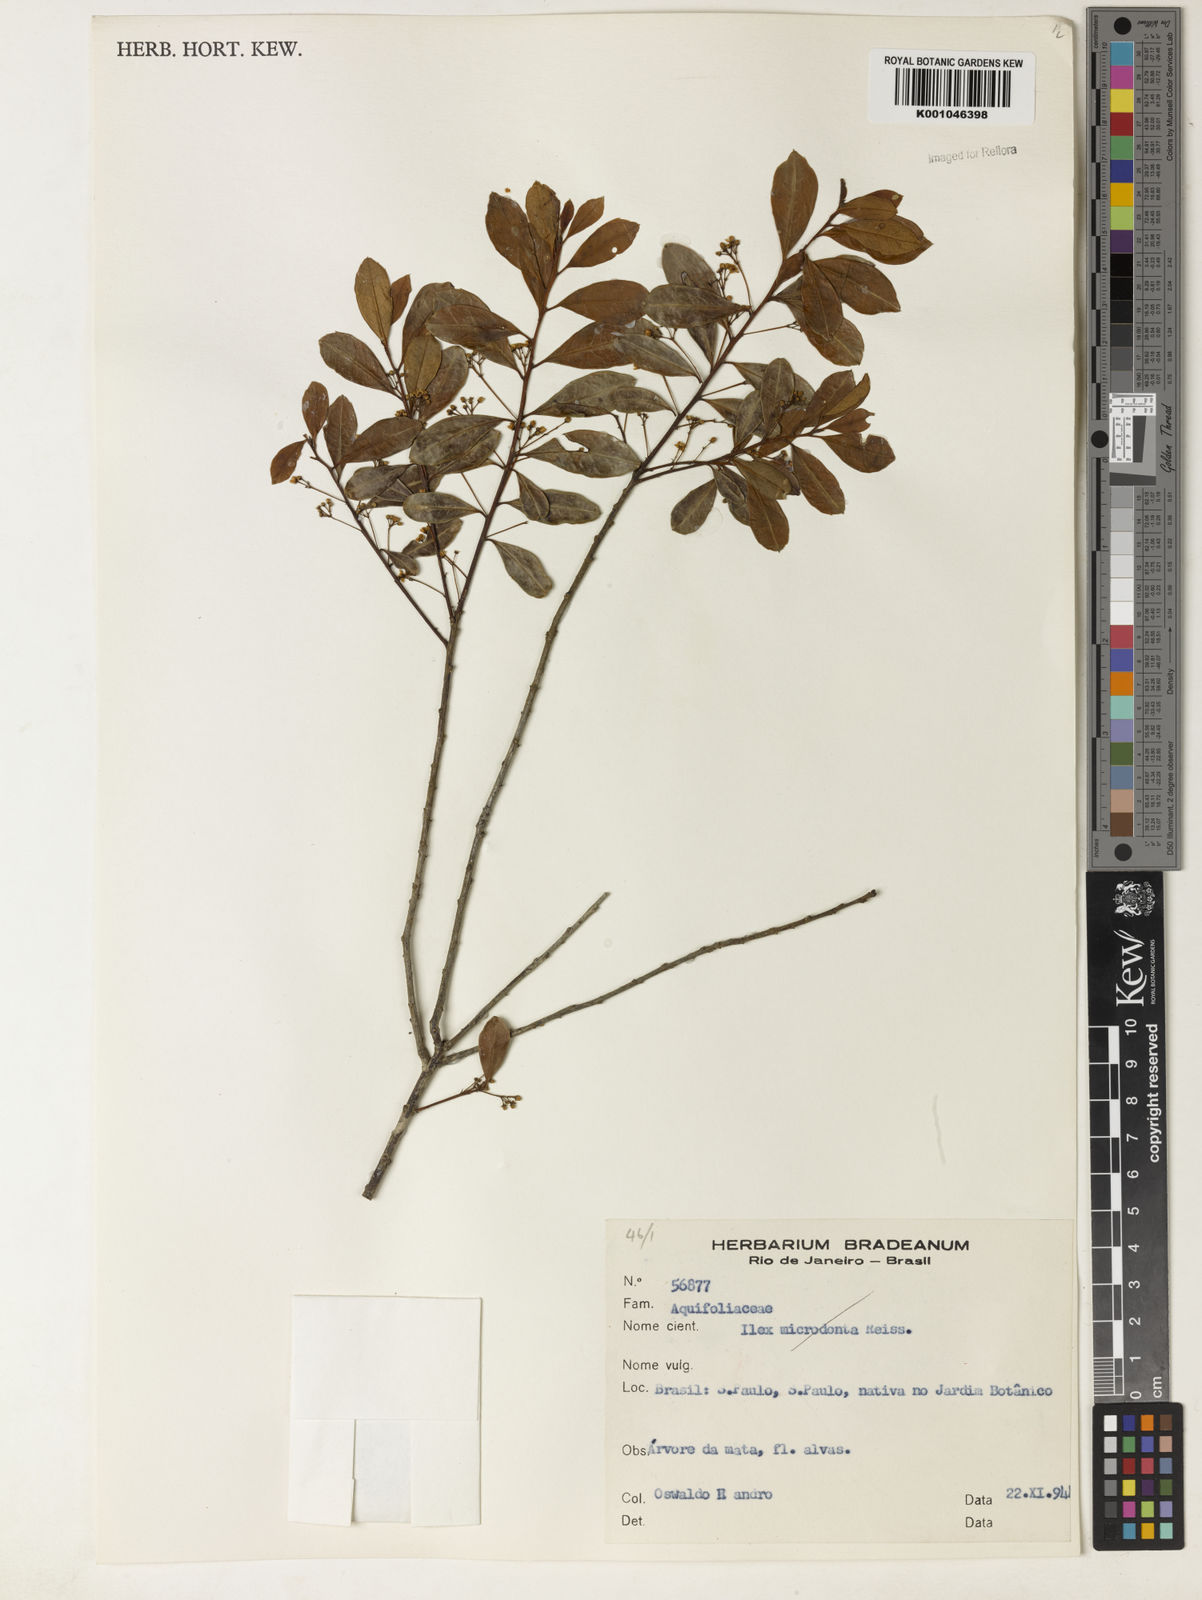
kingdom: Plantae
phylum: Tracheophyta
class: Magnoliopsida
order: Aquifoliales
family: Aquifoliaceae
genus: Ilex
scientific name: Ilex pseudobuxus
